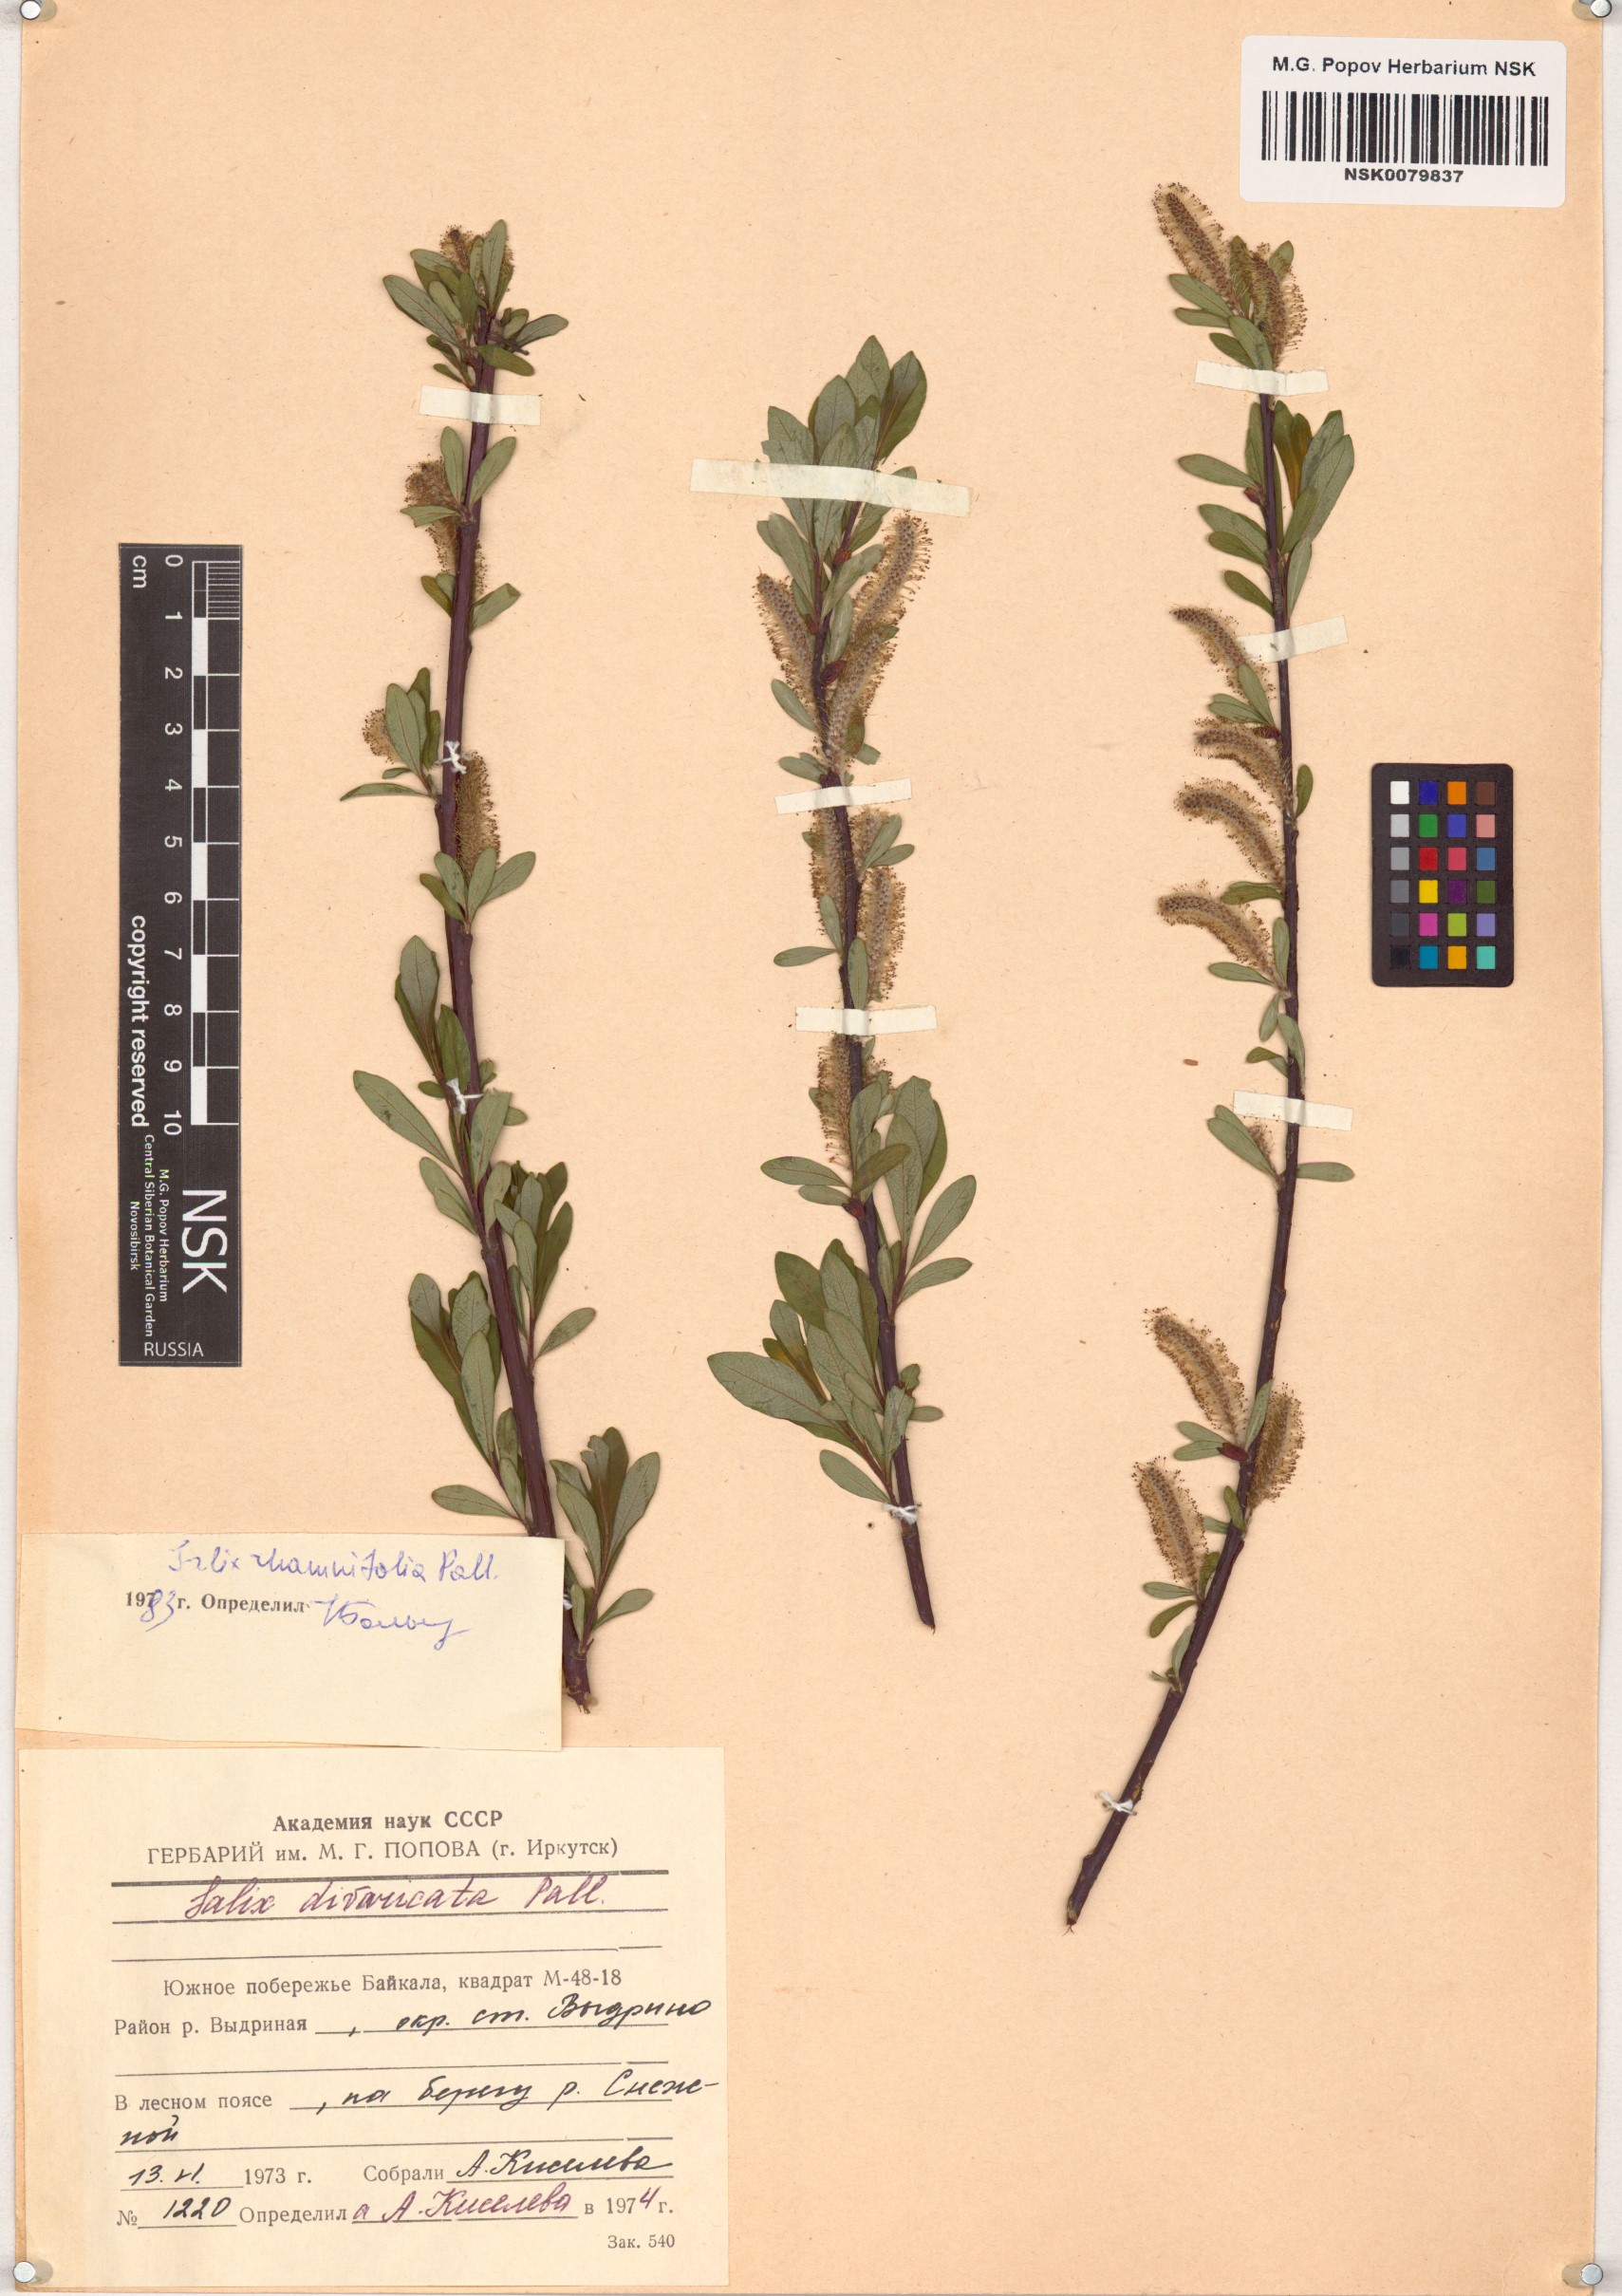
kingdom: Plantae
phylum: Tracheophyta
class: Magnoliopsida
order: Malpighiales
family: Salicaceae
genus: Salix
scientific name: Salix rhamnifolia
